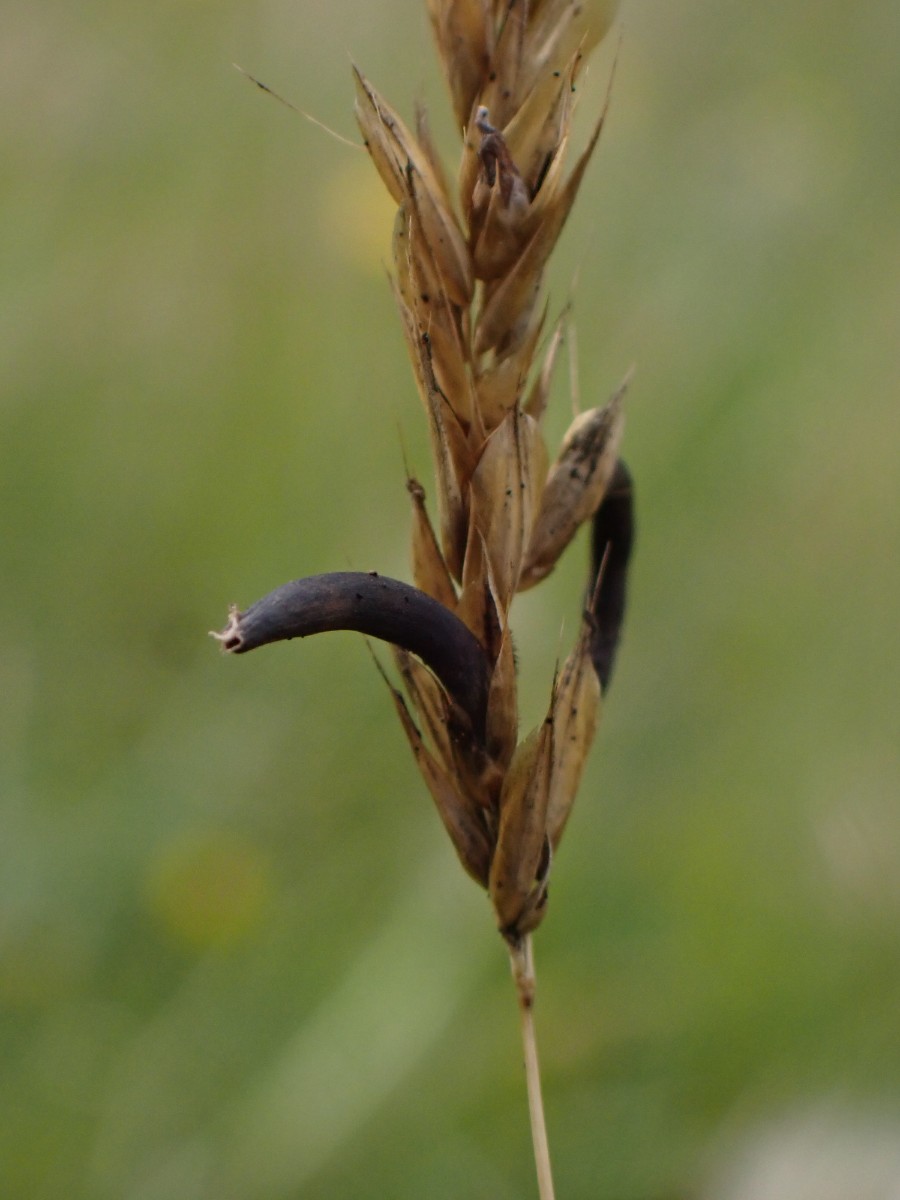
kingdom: Fungi
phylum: Ascomycota
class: Sordariomycetes
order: Hypocreales
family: Clavicipitaceae
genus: Claviceps
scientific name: Claviceps purpurea
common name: almindelig meldrøjer
